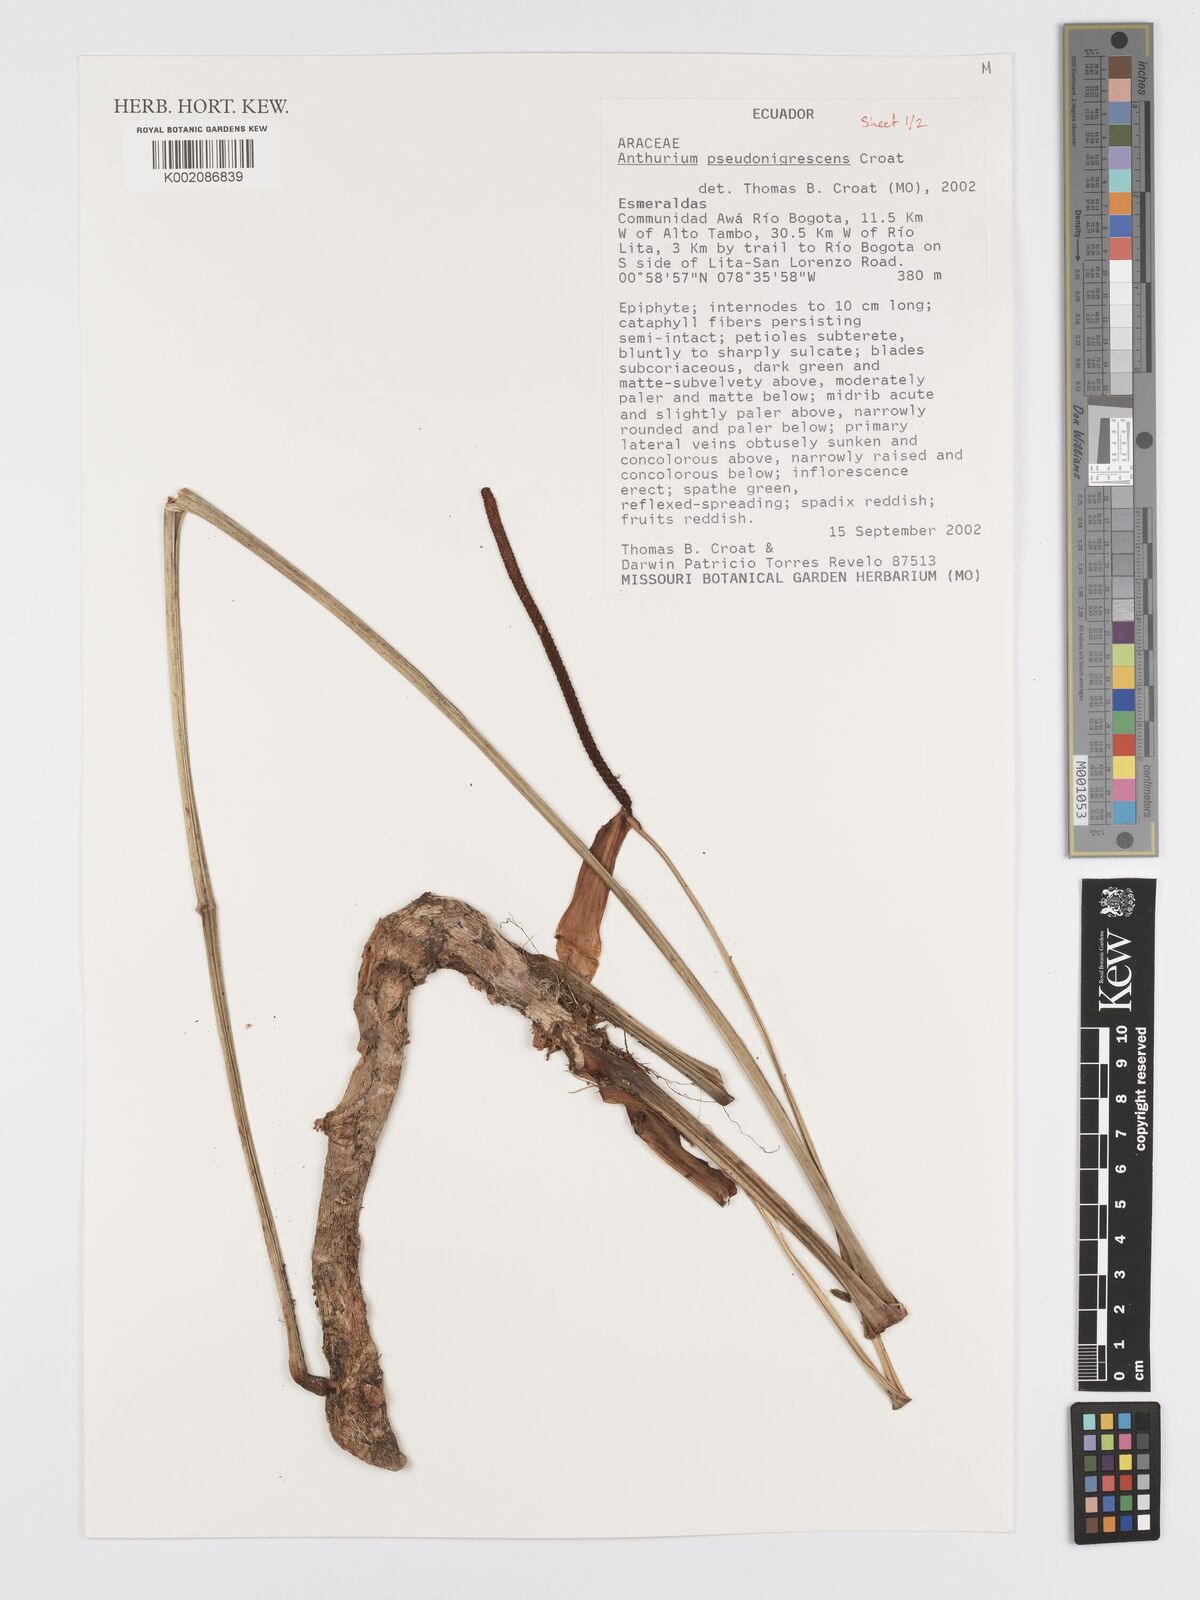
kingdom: Plantae
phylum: Tracheophyta
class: Liliopsida
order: Alismatales
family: Araceae
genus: Anthurium
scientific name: Anthurium pseudonigrescens
